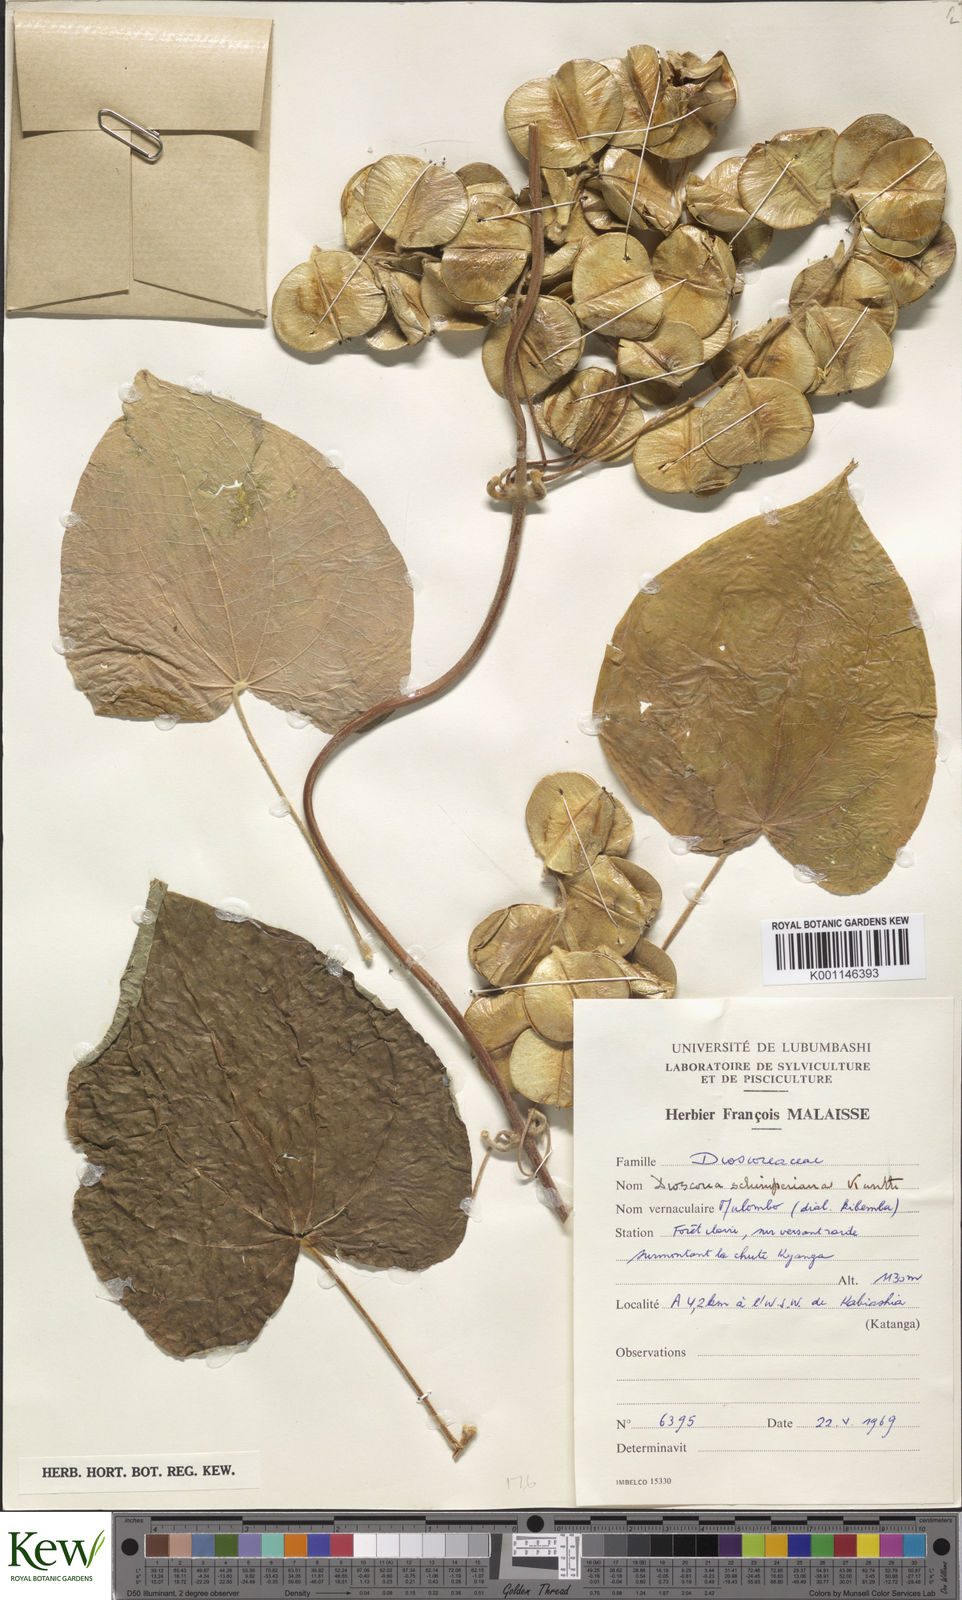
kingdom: Plantae
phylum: Tracheophyta
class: Liliopsida
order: Dioscoreales
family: Dioscoreaceae
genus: Dioscorea
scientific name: Dioscorea schimperiana
